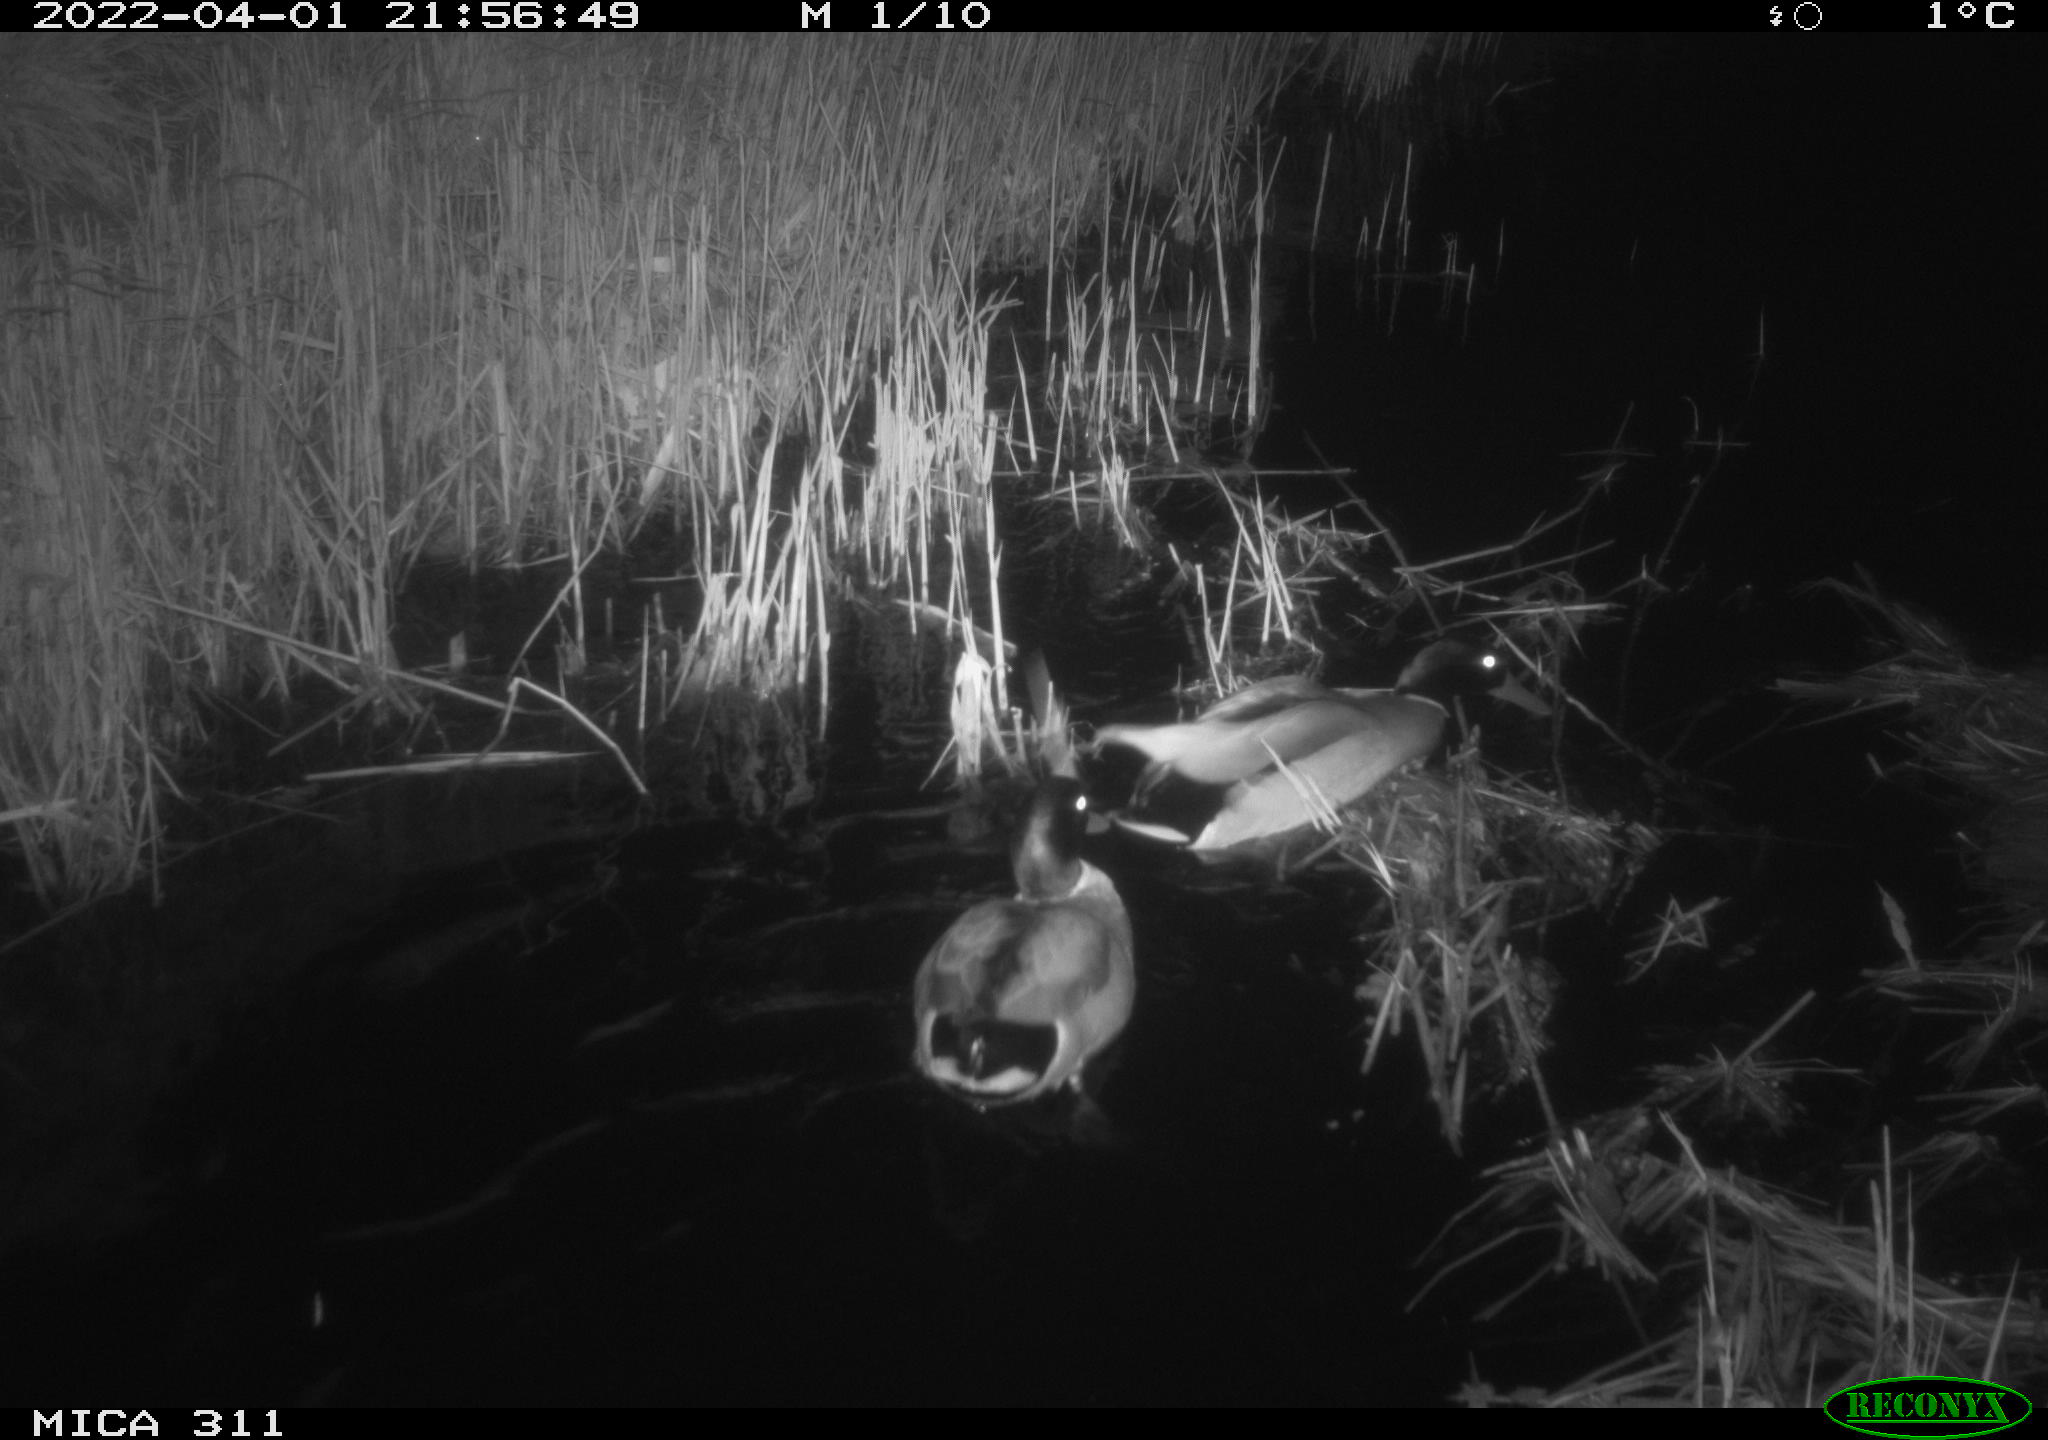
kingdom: Animalia
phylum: Chordata
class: Aves
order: Anseriformes
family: Anatidae
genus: Anas
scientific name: Anas
